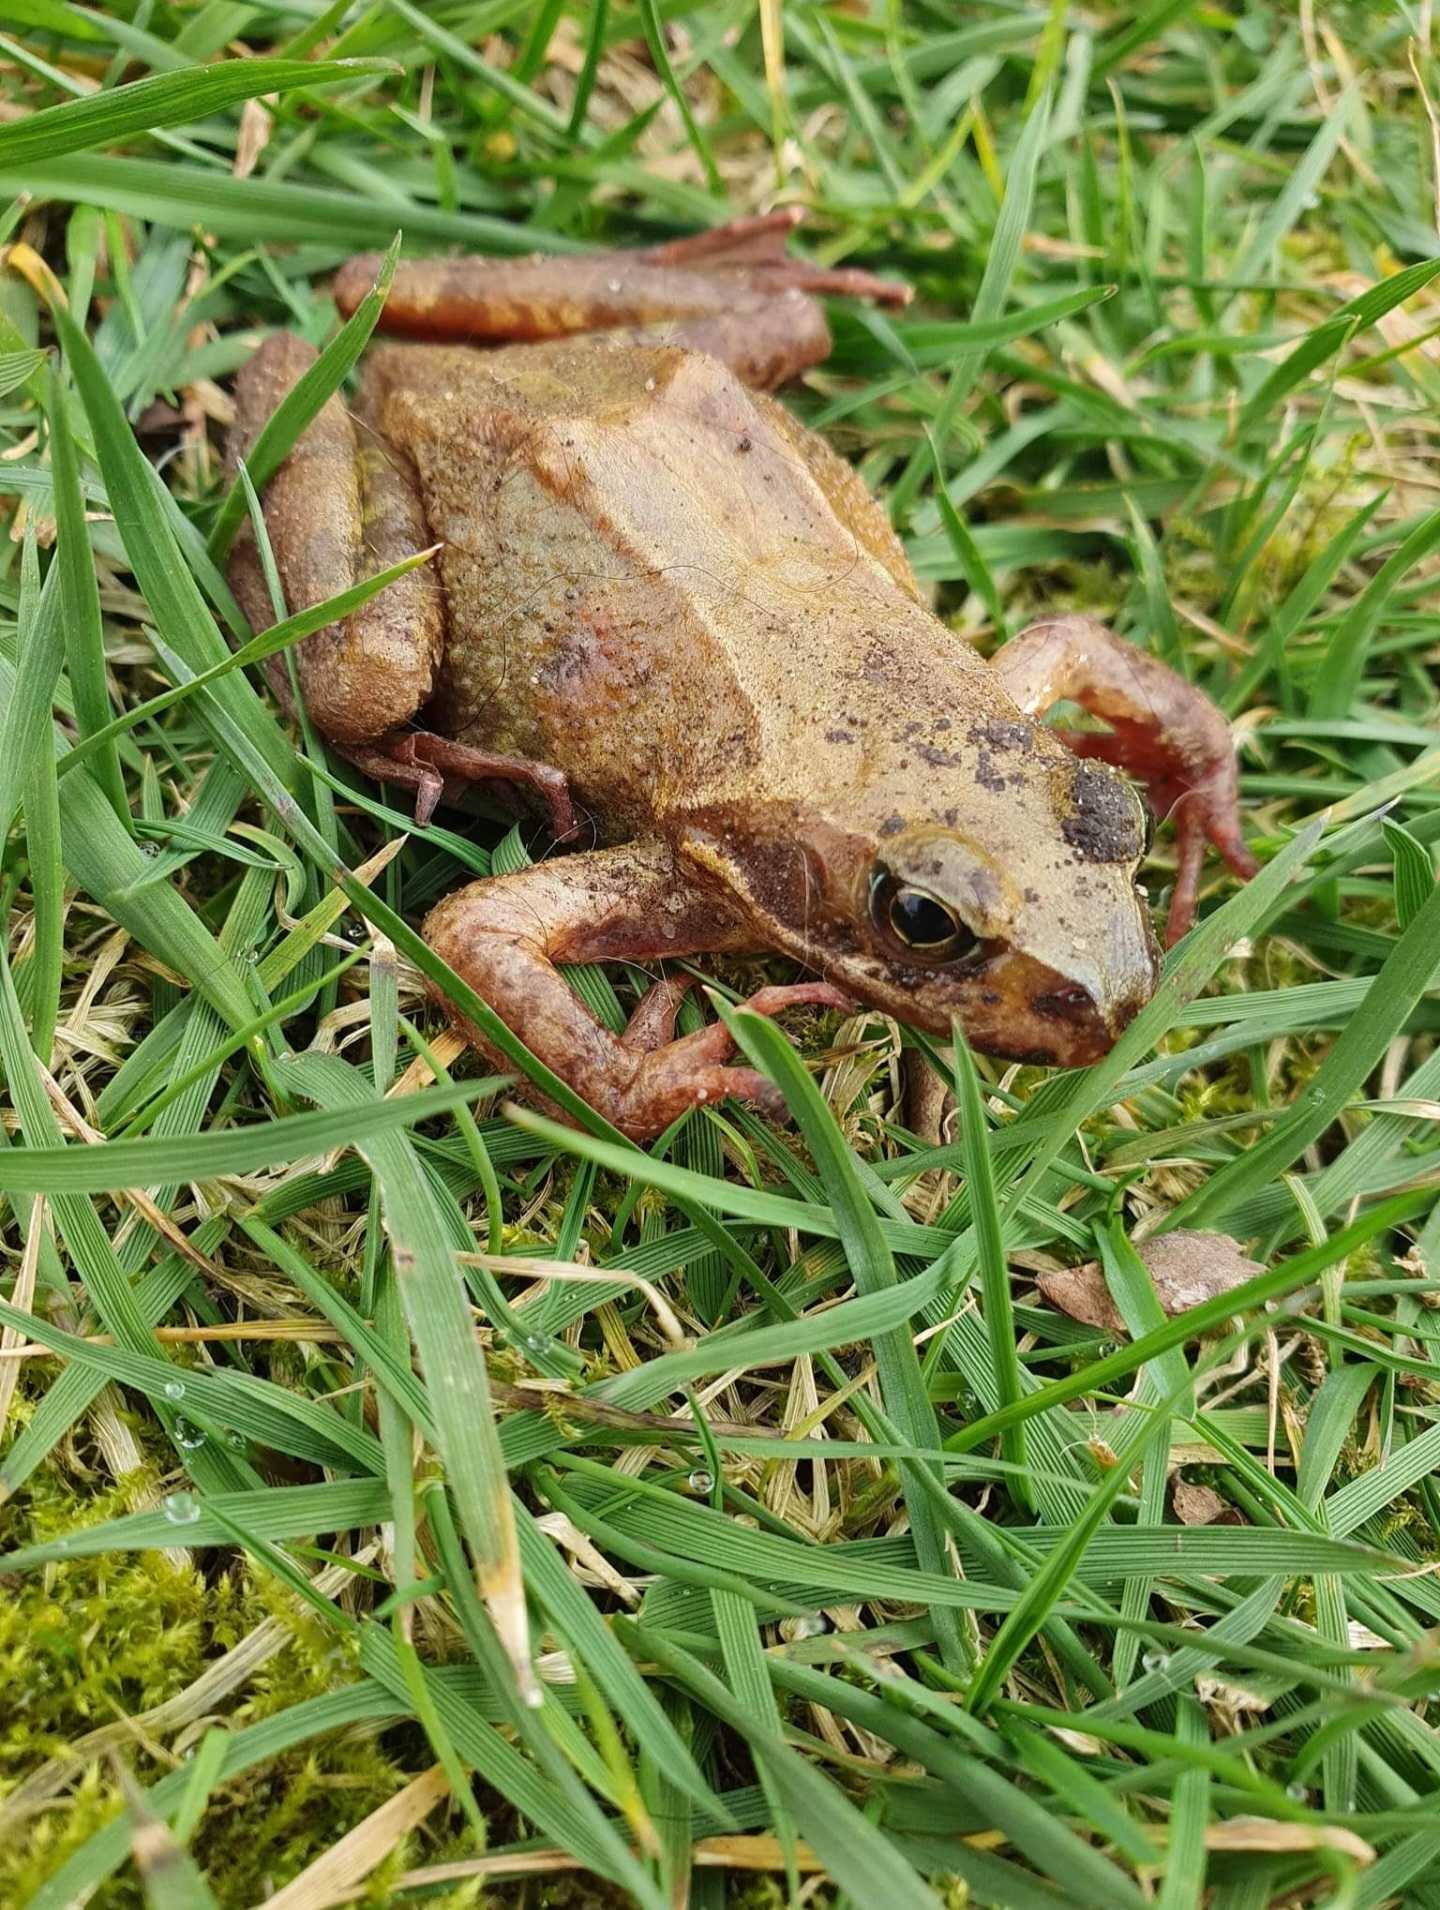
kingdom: Animalia
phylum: Chordata
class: Amphibia
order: Anura
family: Ranidae
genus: Rana
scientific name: Rana temporaria
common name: Butsnudet frø
